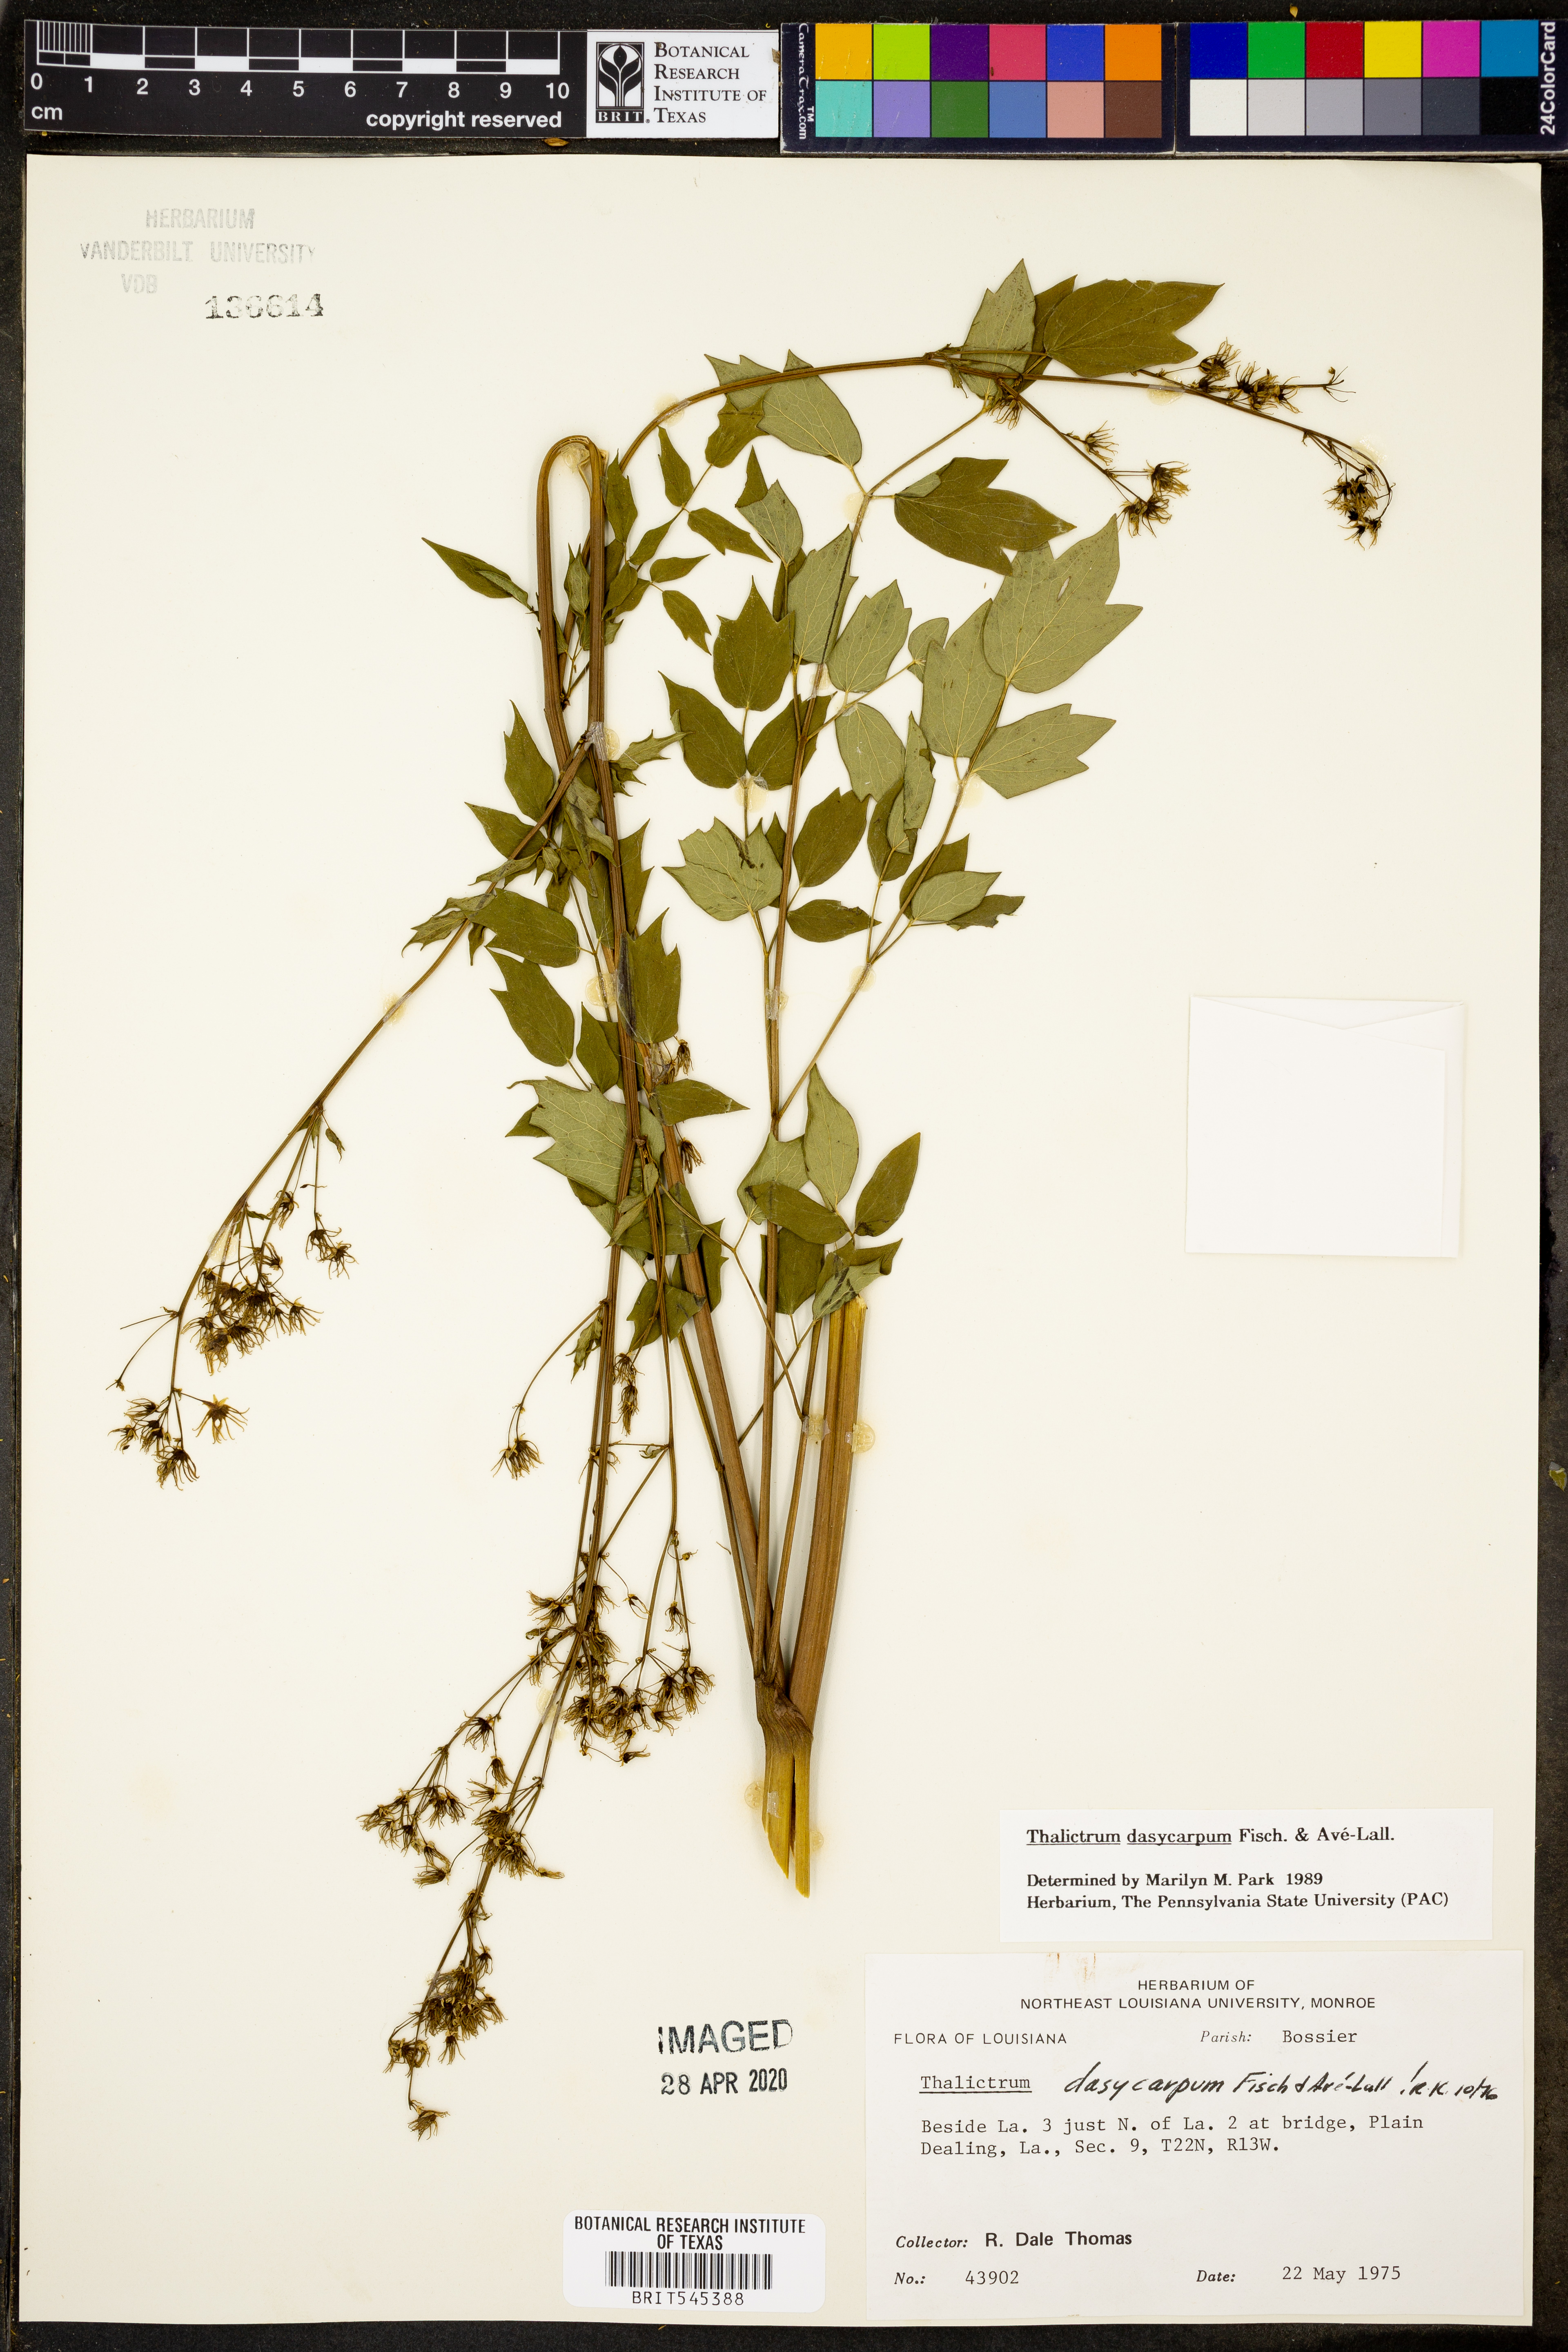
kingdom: Plantae
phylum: Tracheophyta
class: Magnoliopsida
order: Ranunculales
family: Ranunculaceae
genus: Thalictrum
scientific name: Thalictrum dasycarpum
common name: Purple meadow-rue
